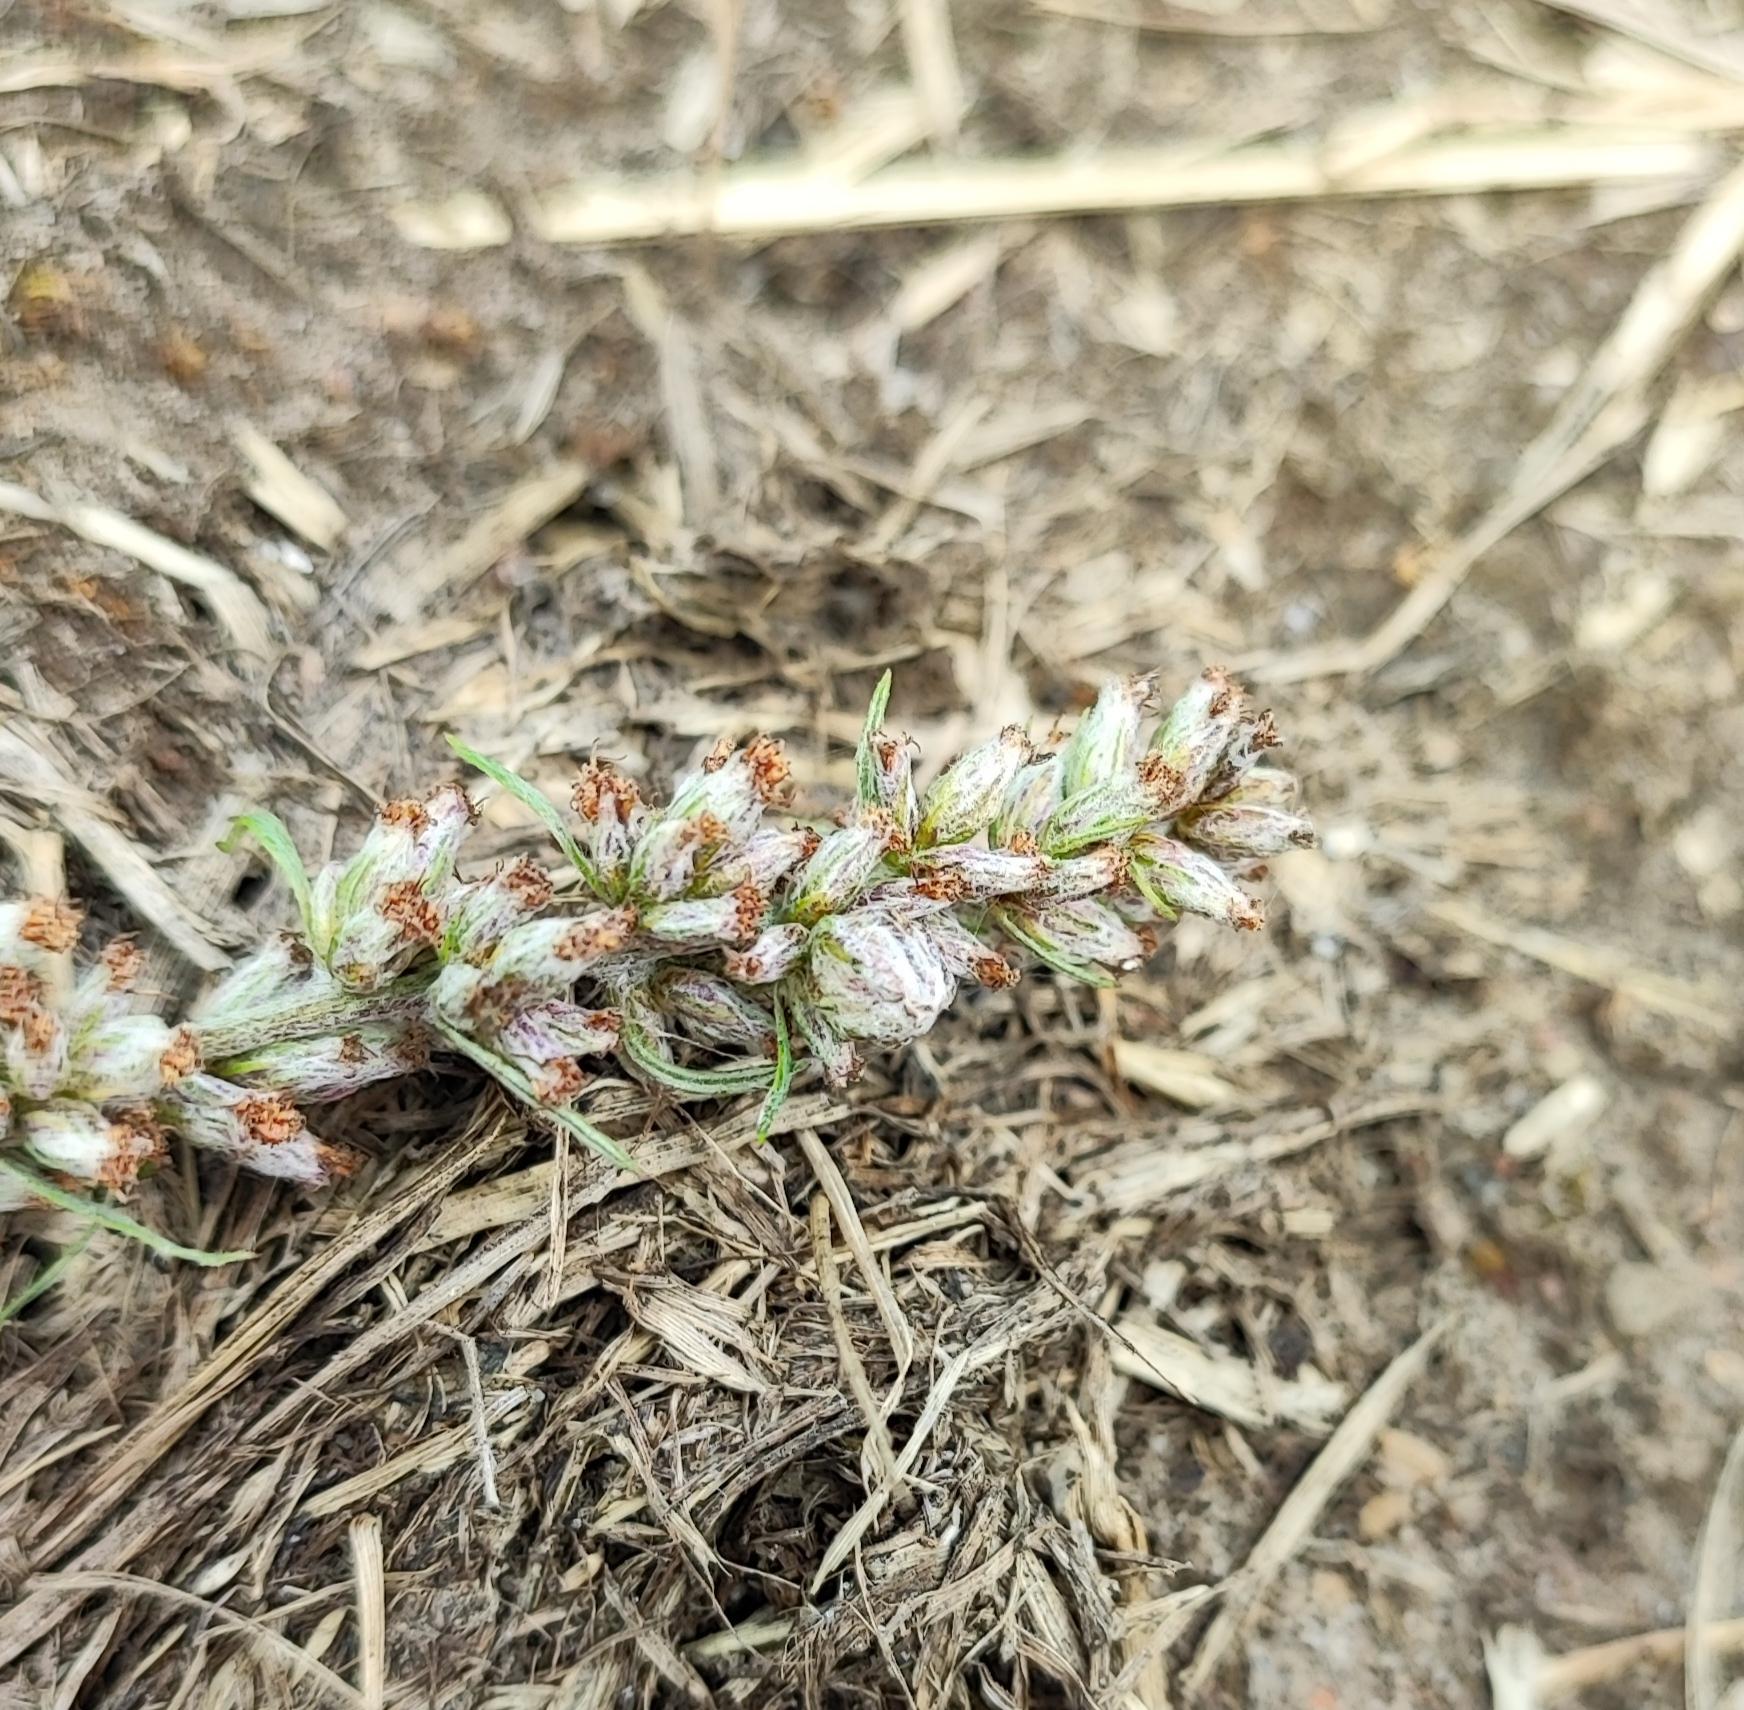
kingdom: Animalia
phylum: Arthropoda
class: Insecta
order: Diptera
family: Cecidomyiidae
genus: Ametrodiplosis
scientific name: Ametrodiplosis rudimentalis
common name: Bynkekurvgalmyg
